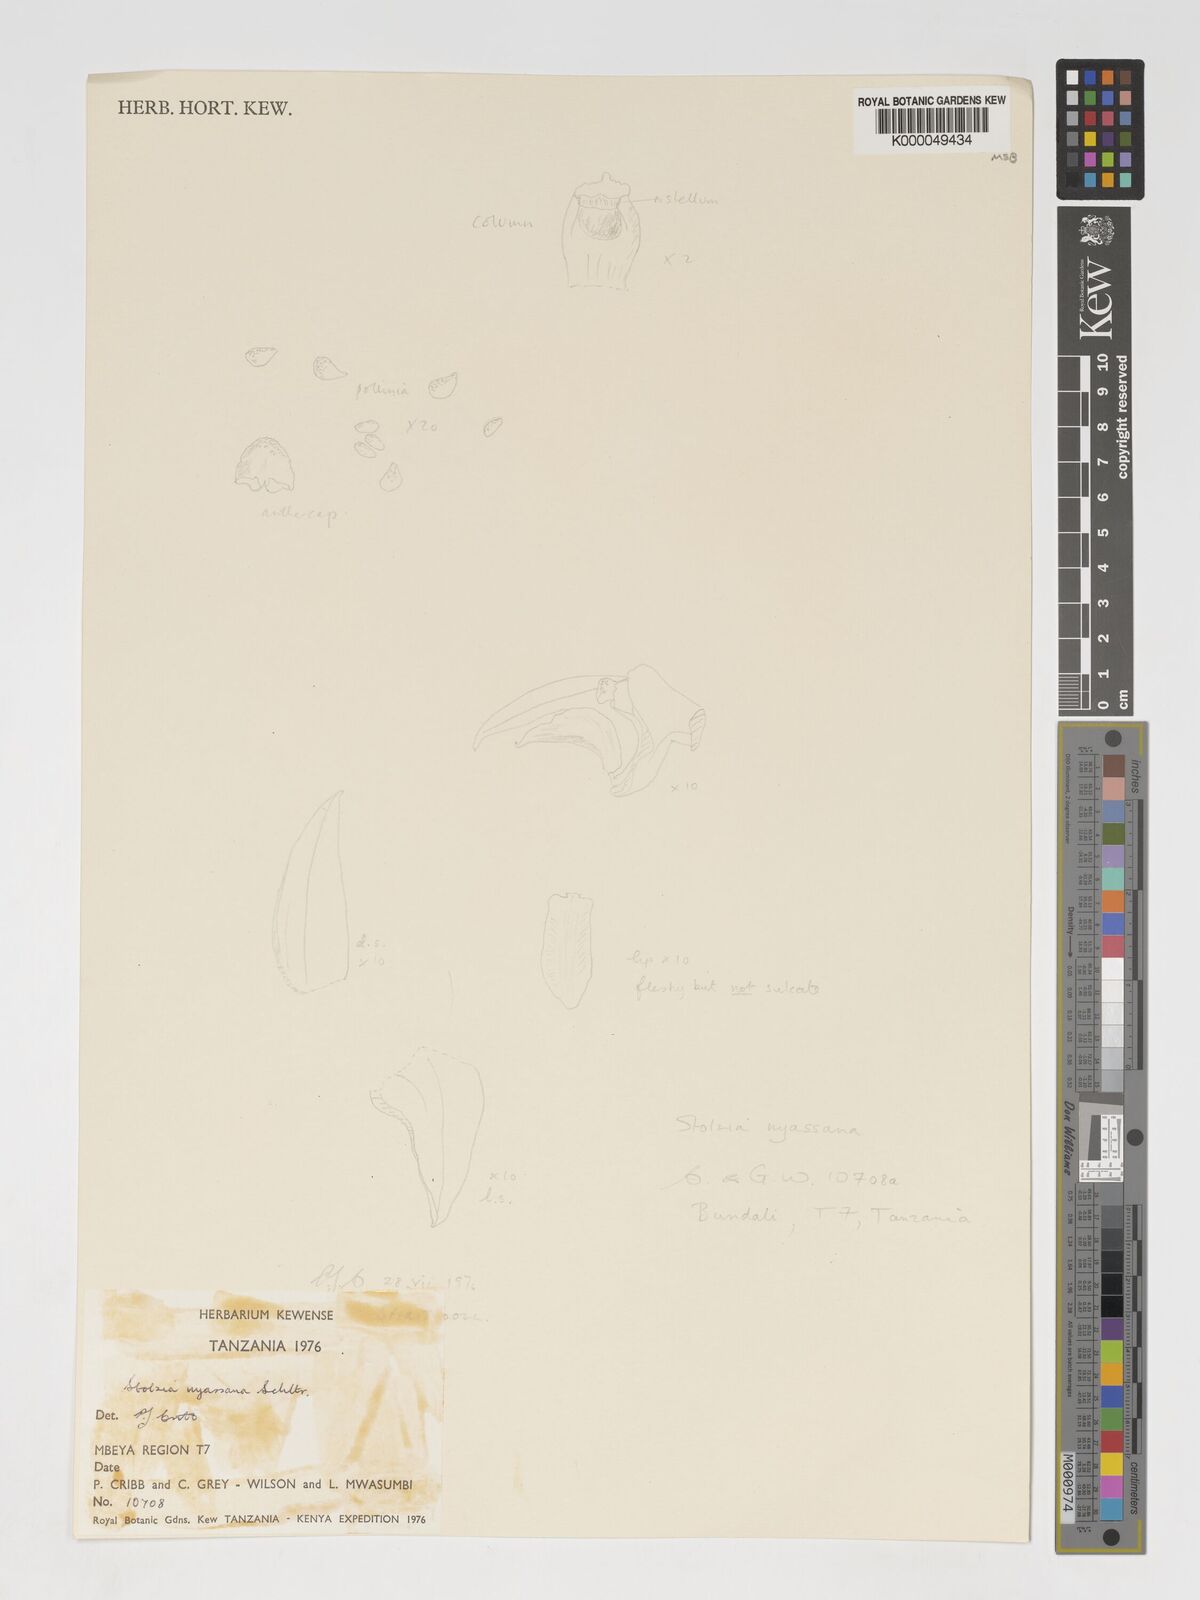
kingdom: Plantae
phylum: Tracheophyta
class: Liliopsida
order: Asparagales
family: Orchidaceae
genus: Porpax
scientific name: Porpax nyassana
